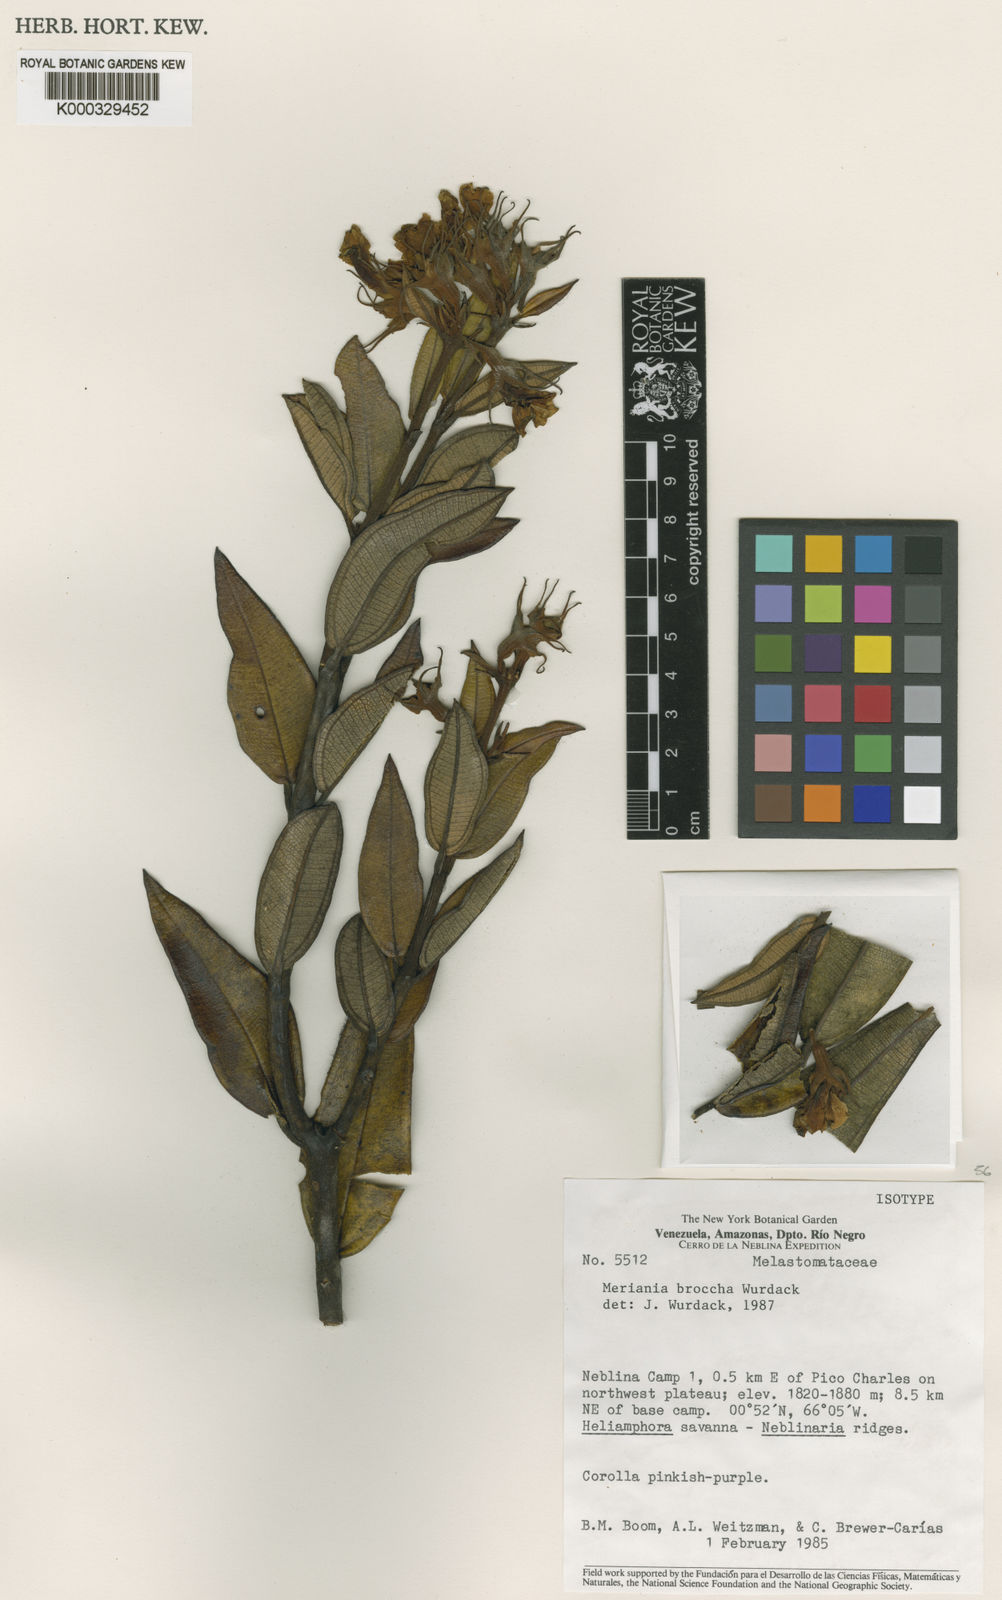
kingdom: Plantae
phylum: Tracheophyta
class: Magnoliopsida
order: Myrtales
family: Melastomataceae
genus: Meriania
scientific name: Meriania broccha
